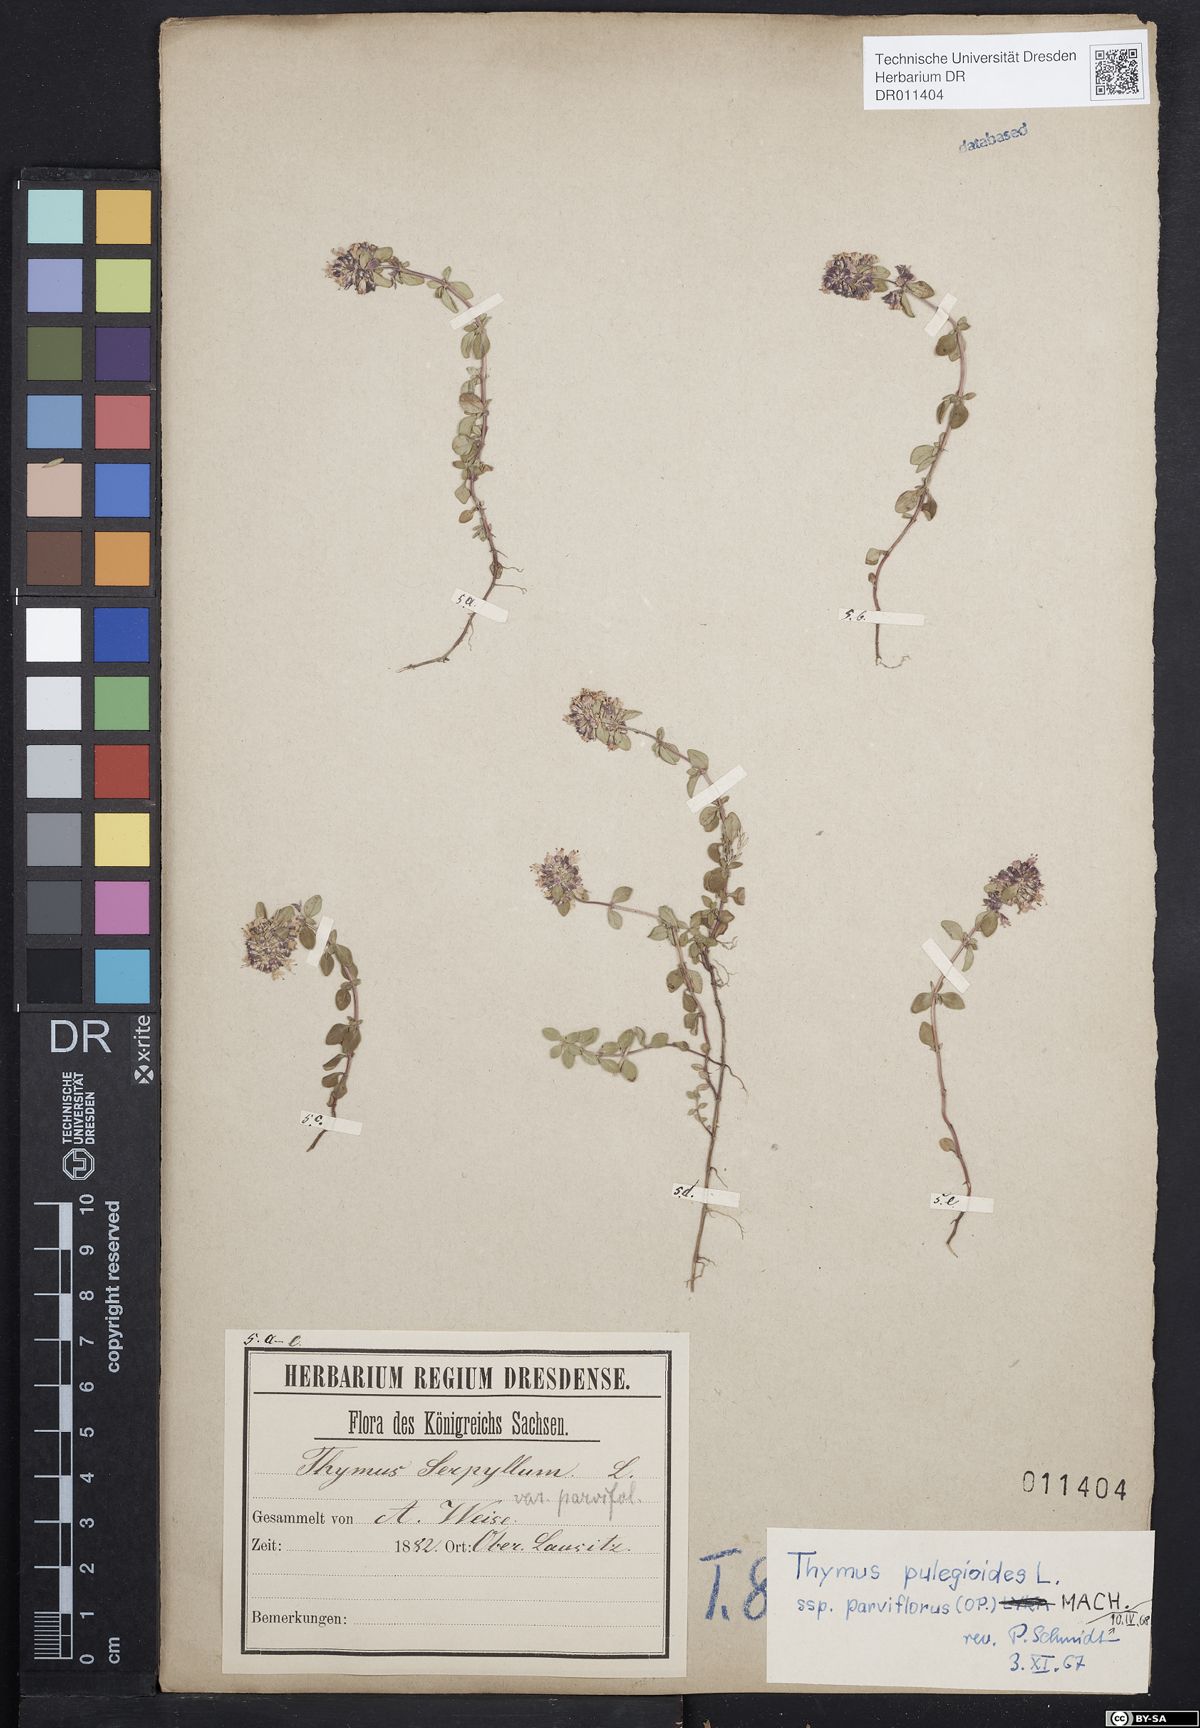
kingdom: Plantae
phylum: Tracheophyta
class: Magnoliopsida
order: Lamiales
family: Lamiaceae
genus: Thymus
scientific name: Thymus pulegioides
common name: Large thyme
